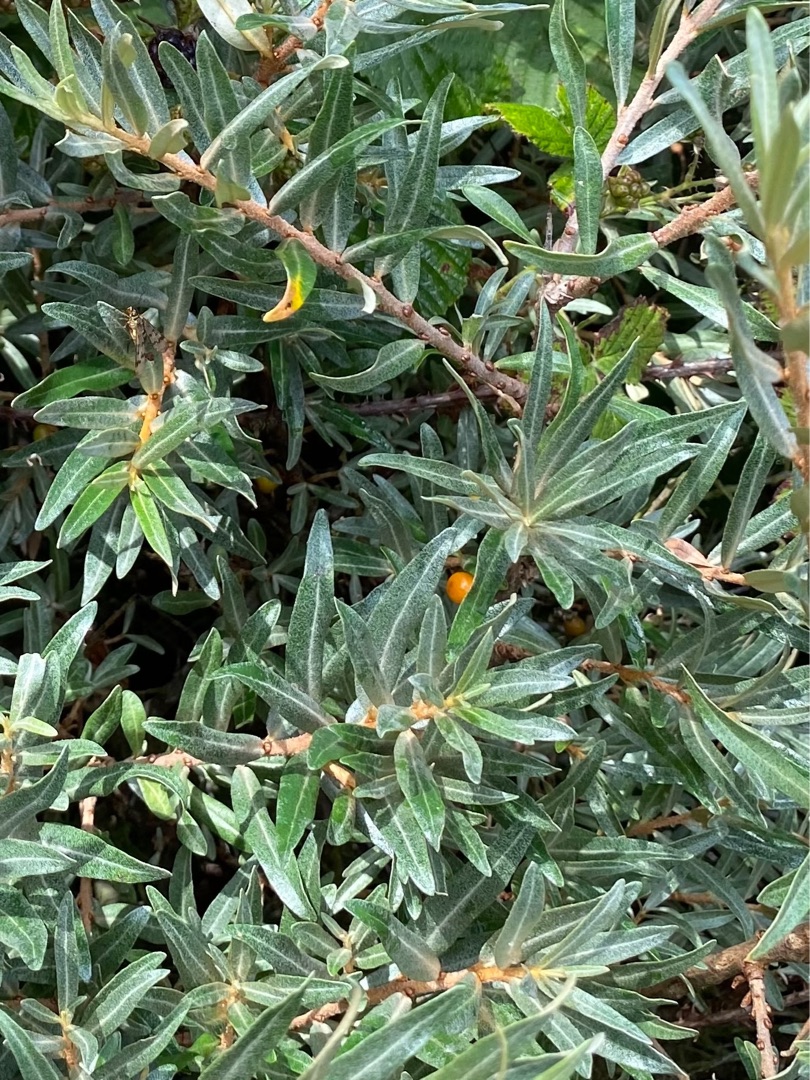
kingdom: Plantae
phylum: Tracheophyta
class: Magnoliopsida
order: Rosales
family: Elaeagnaceae
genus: Hippophae
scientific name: Hippophae rhamnoides
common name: Havtorn
